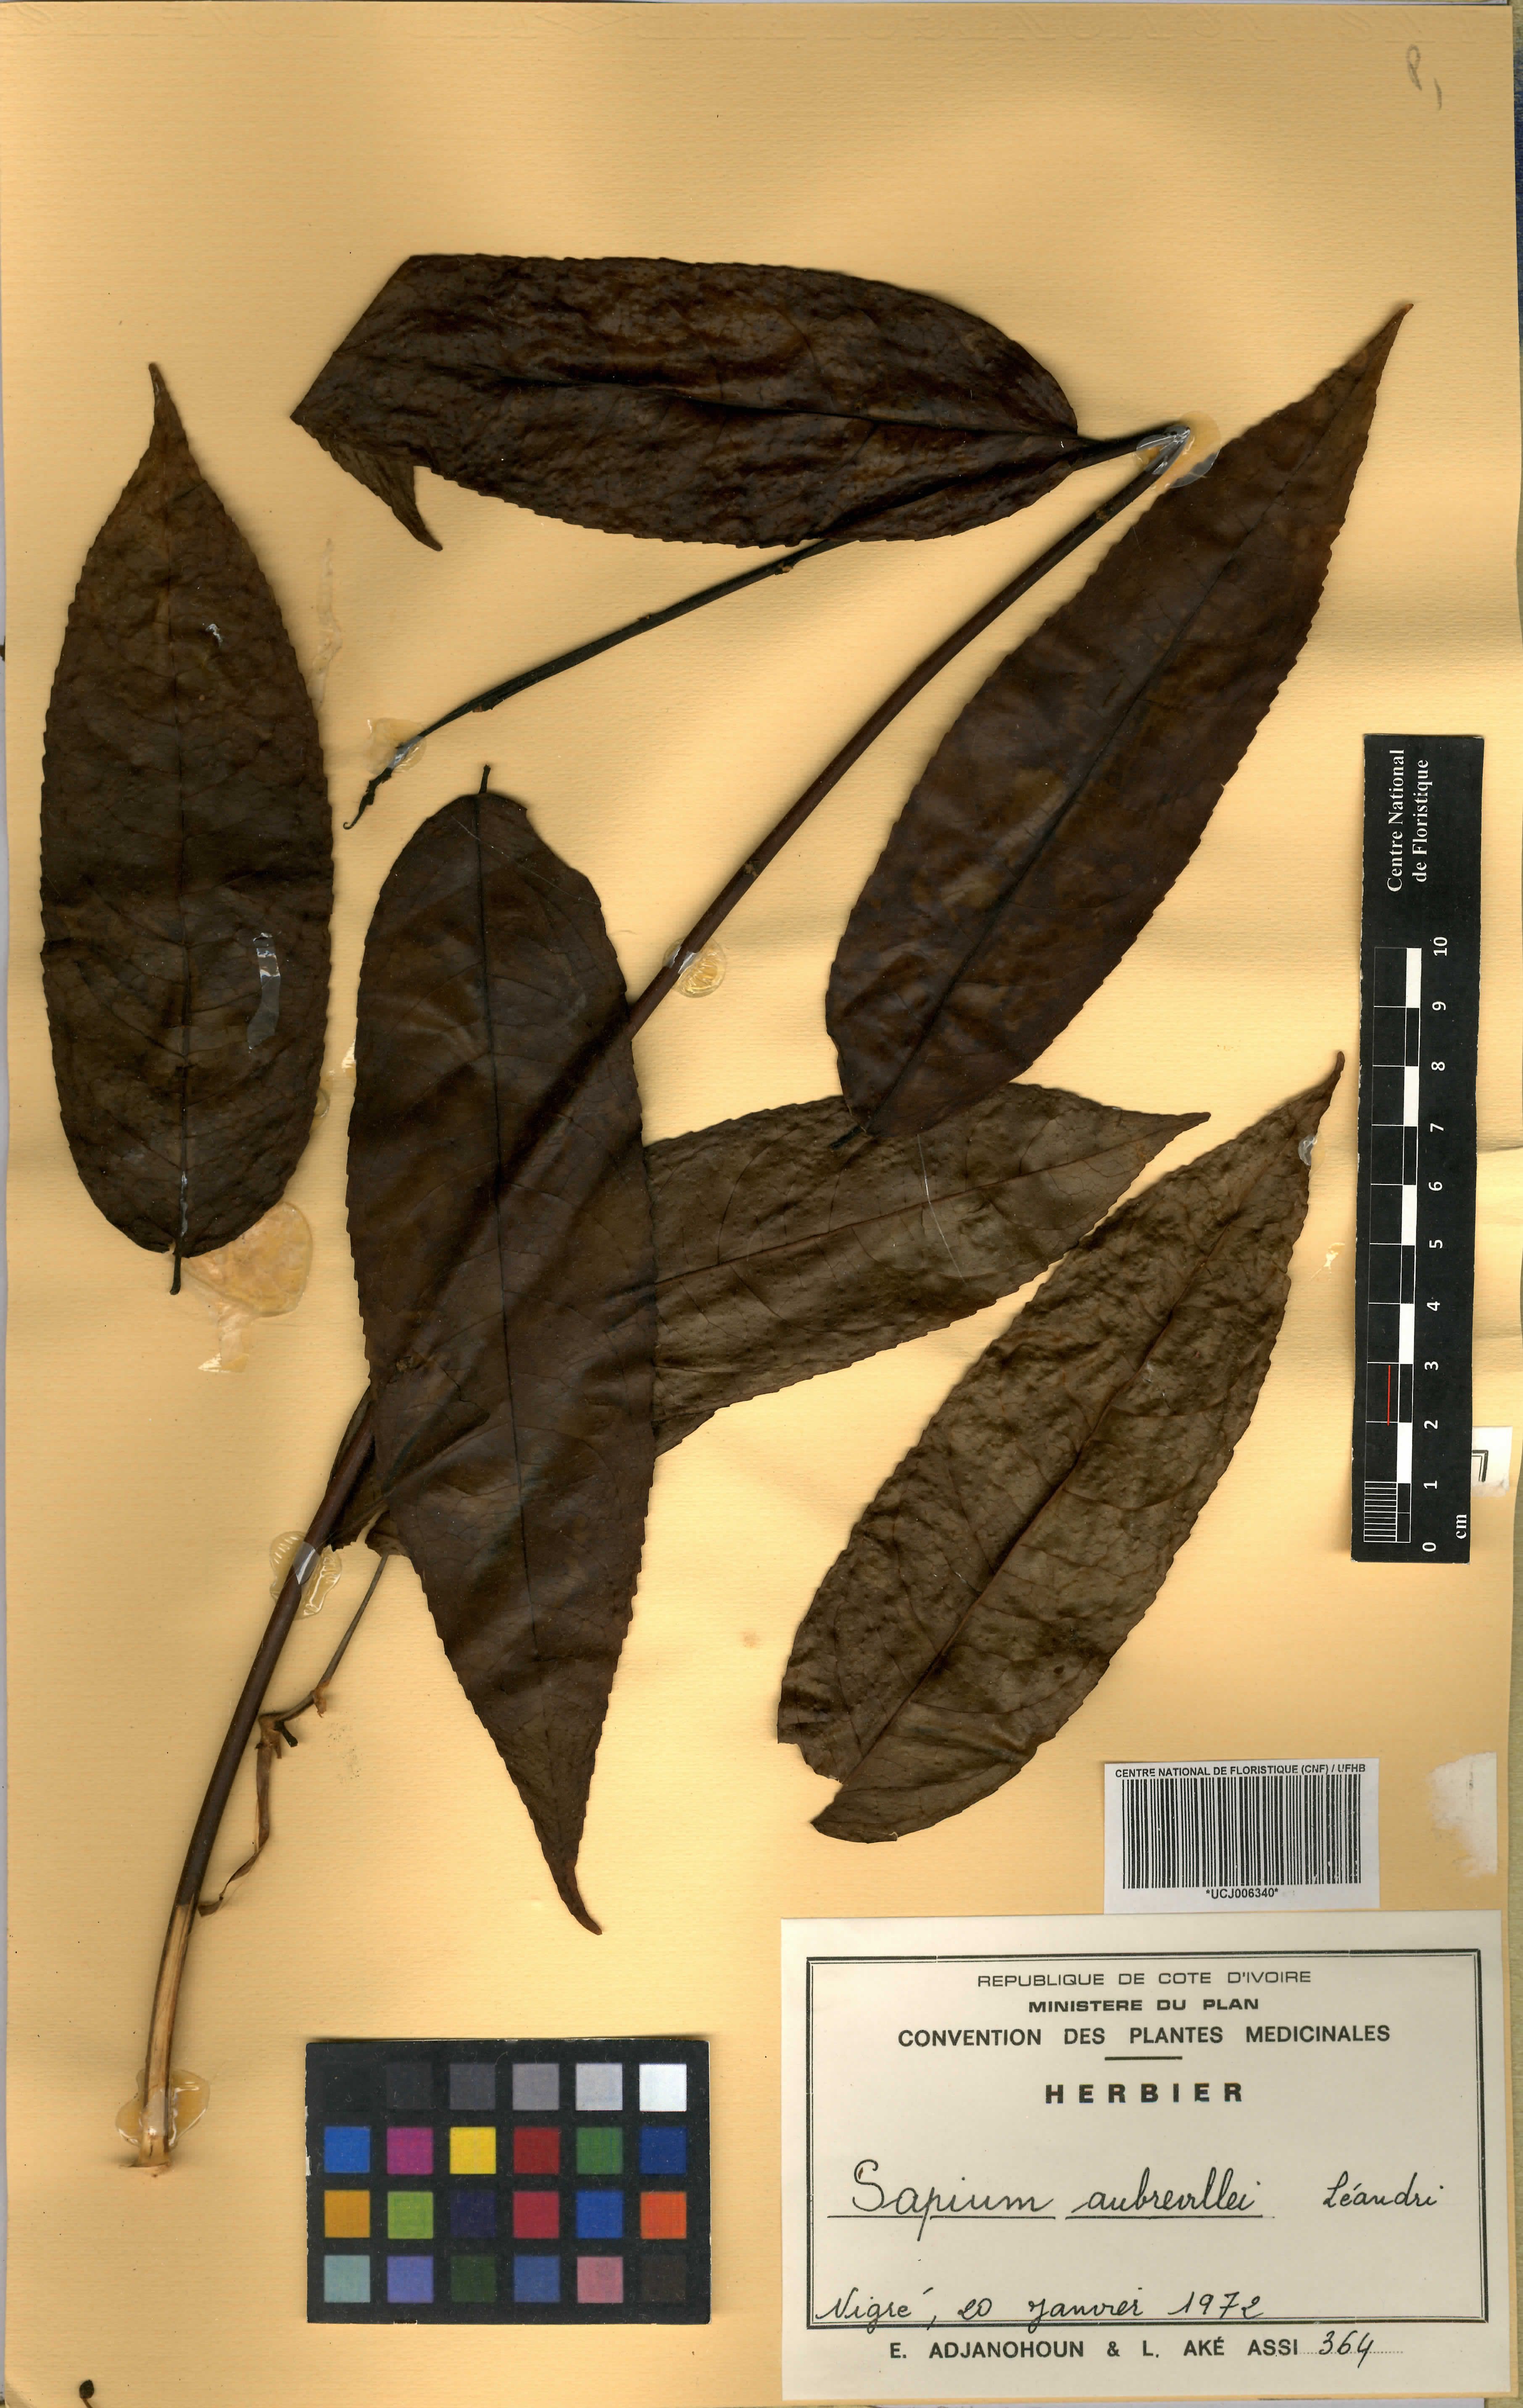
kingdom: Plantae
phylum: Tracheophyta
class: Magnoliopsida
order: Malpighiales
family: Euphorbiaceae
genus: Shirakiopsis
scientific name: Shirakiopsis aubrevillei
